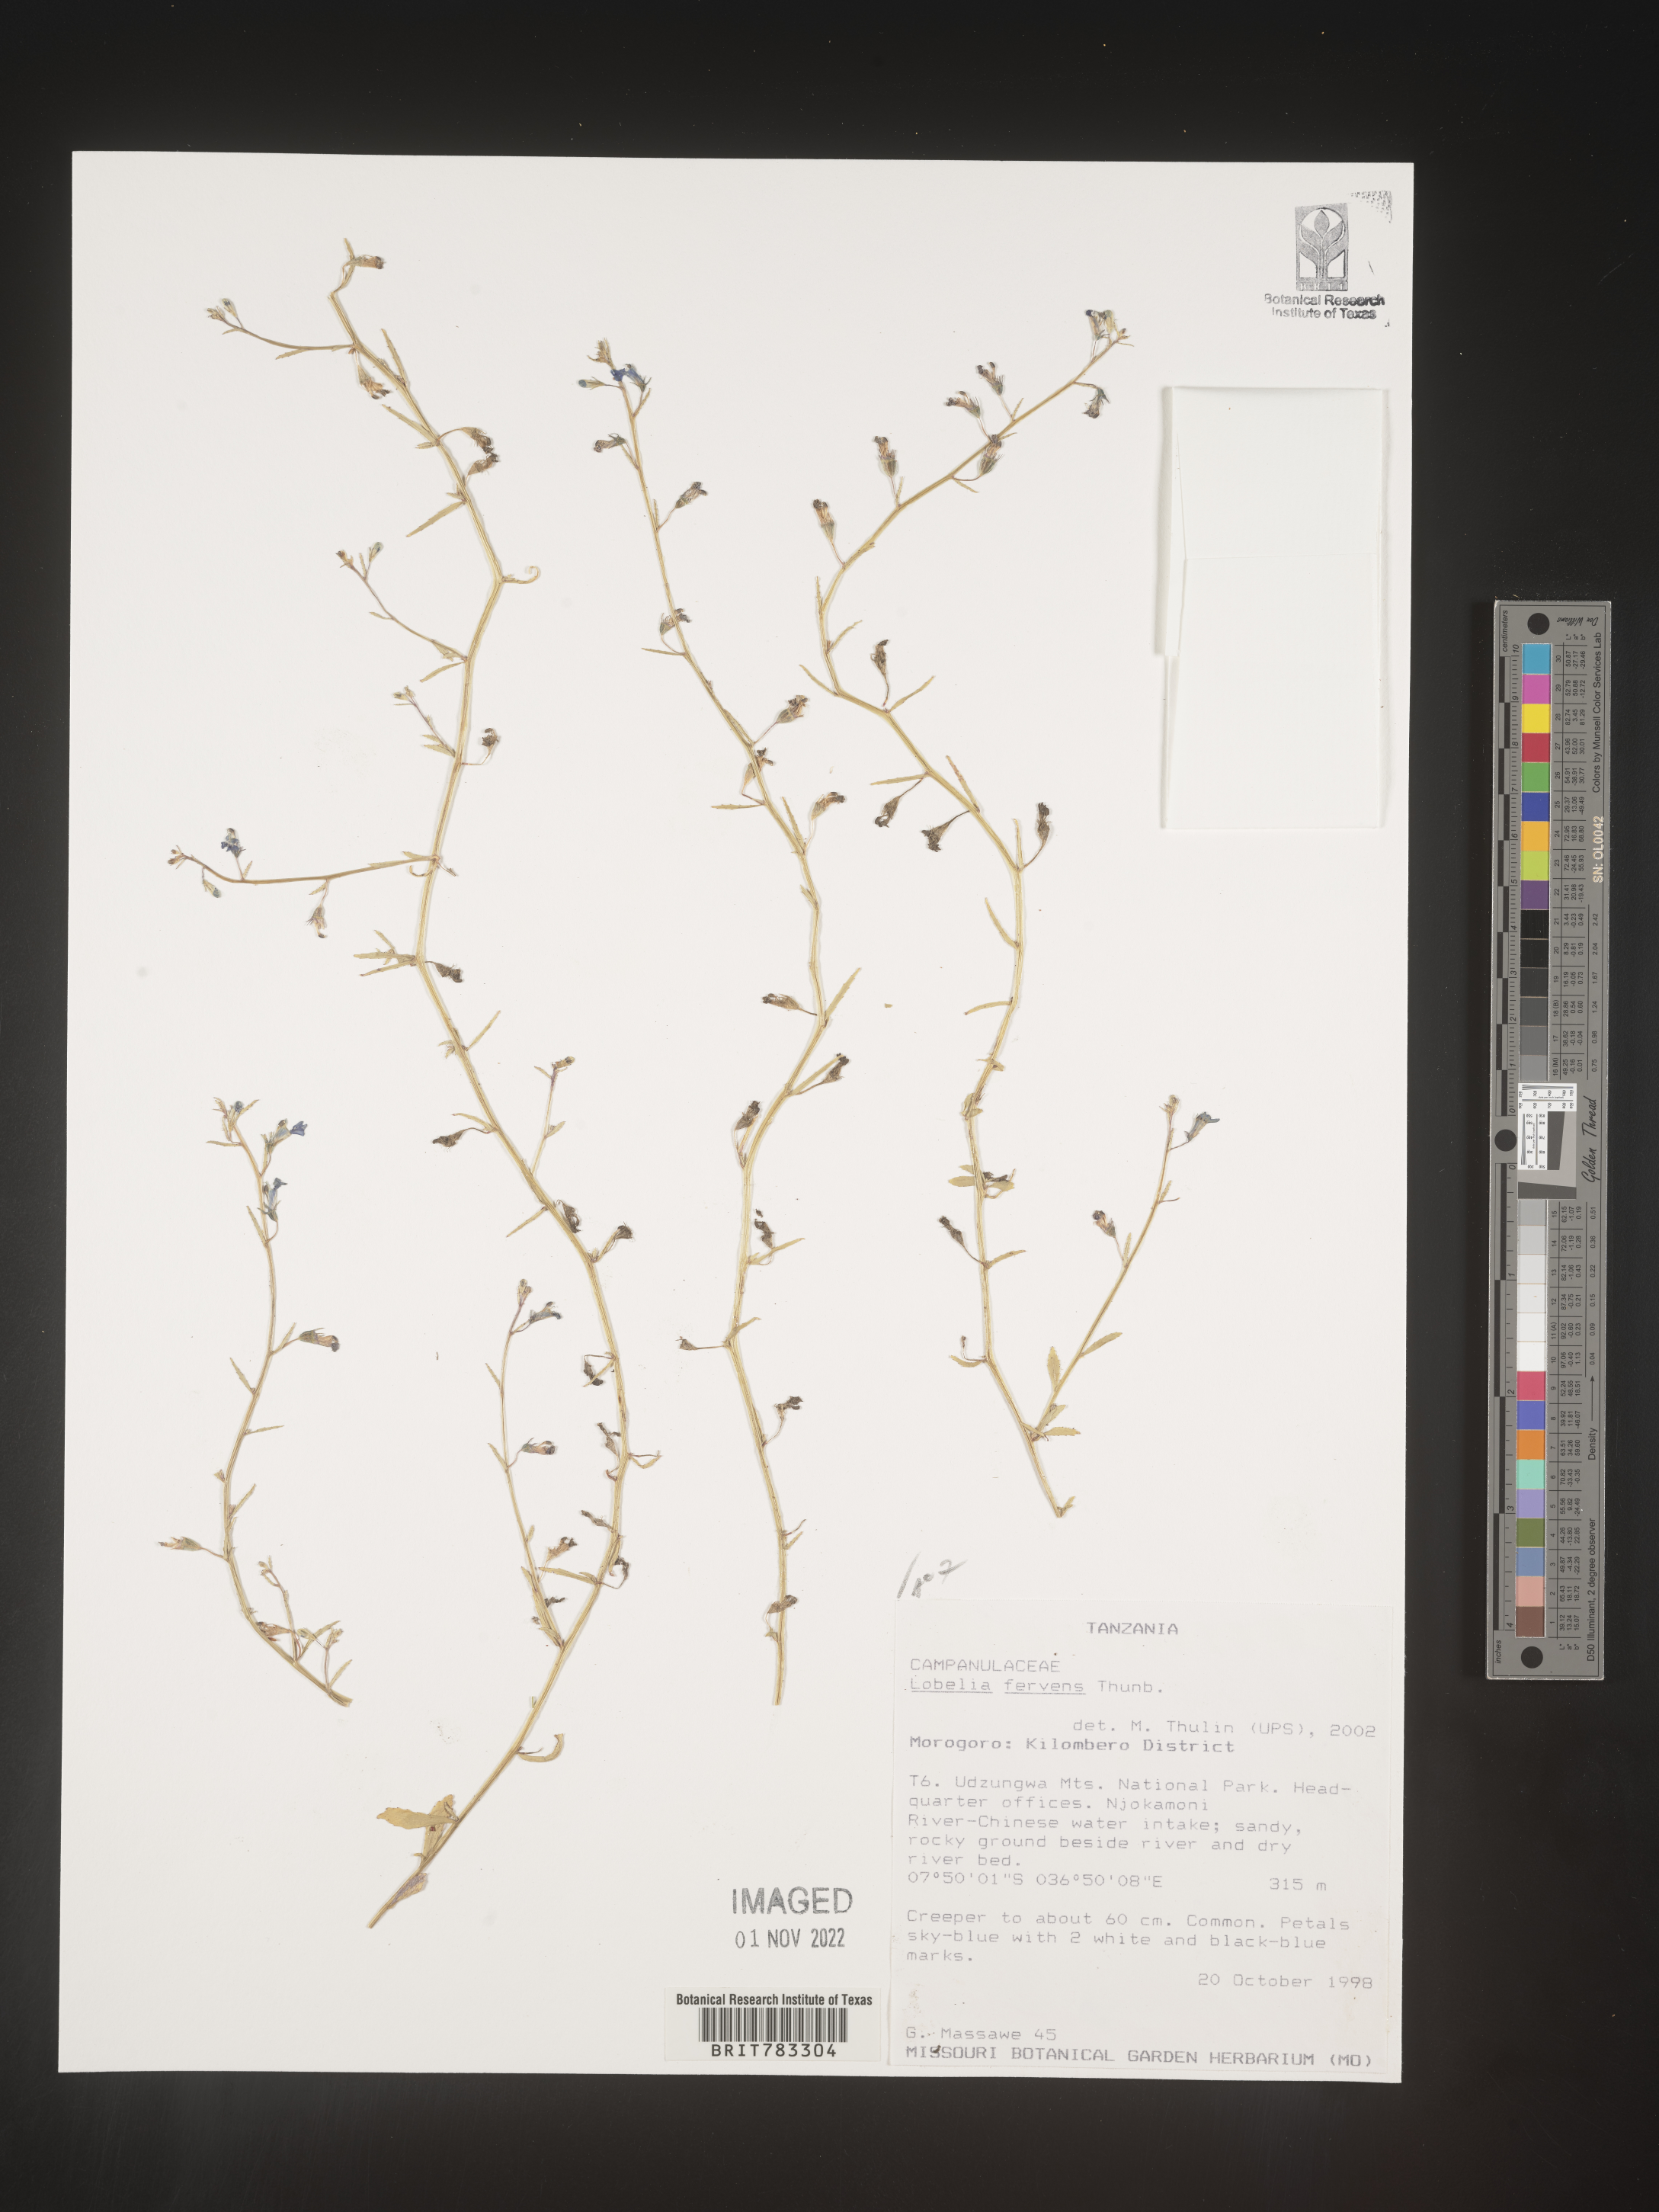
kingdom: Plantae
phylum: Tracheophyta
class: Magnoliopsida
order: Asterales
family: Campanulaceae
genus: Lobelia
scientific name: Lobelia
